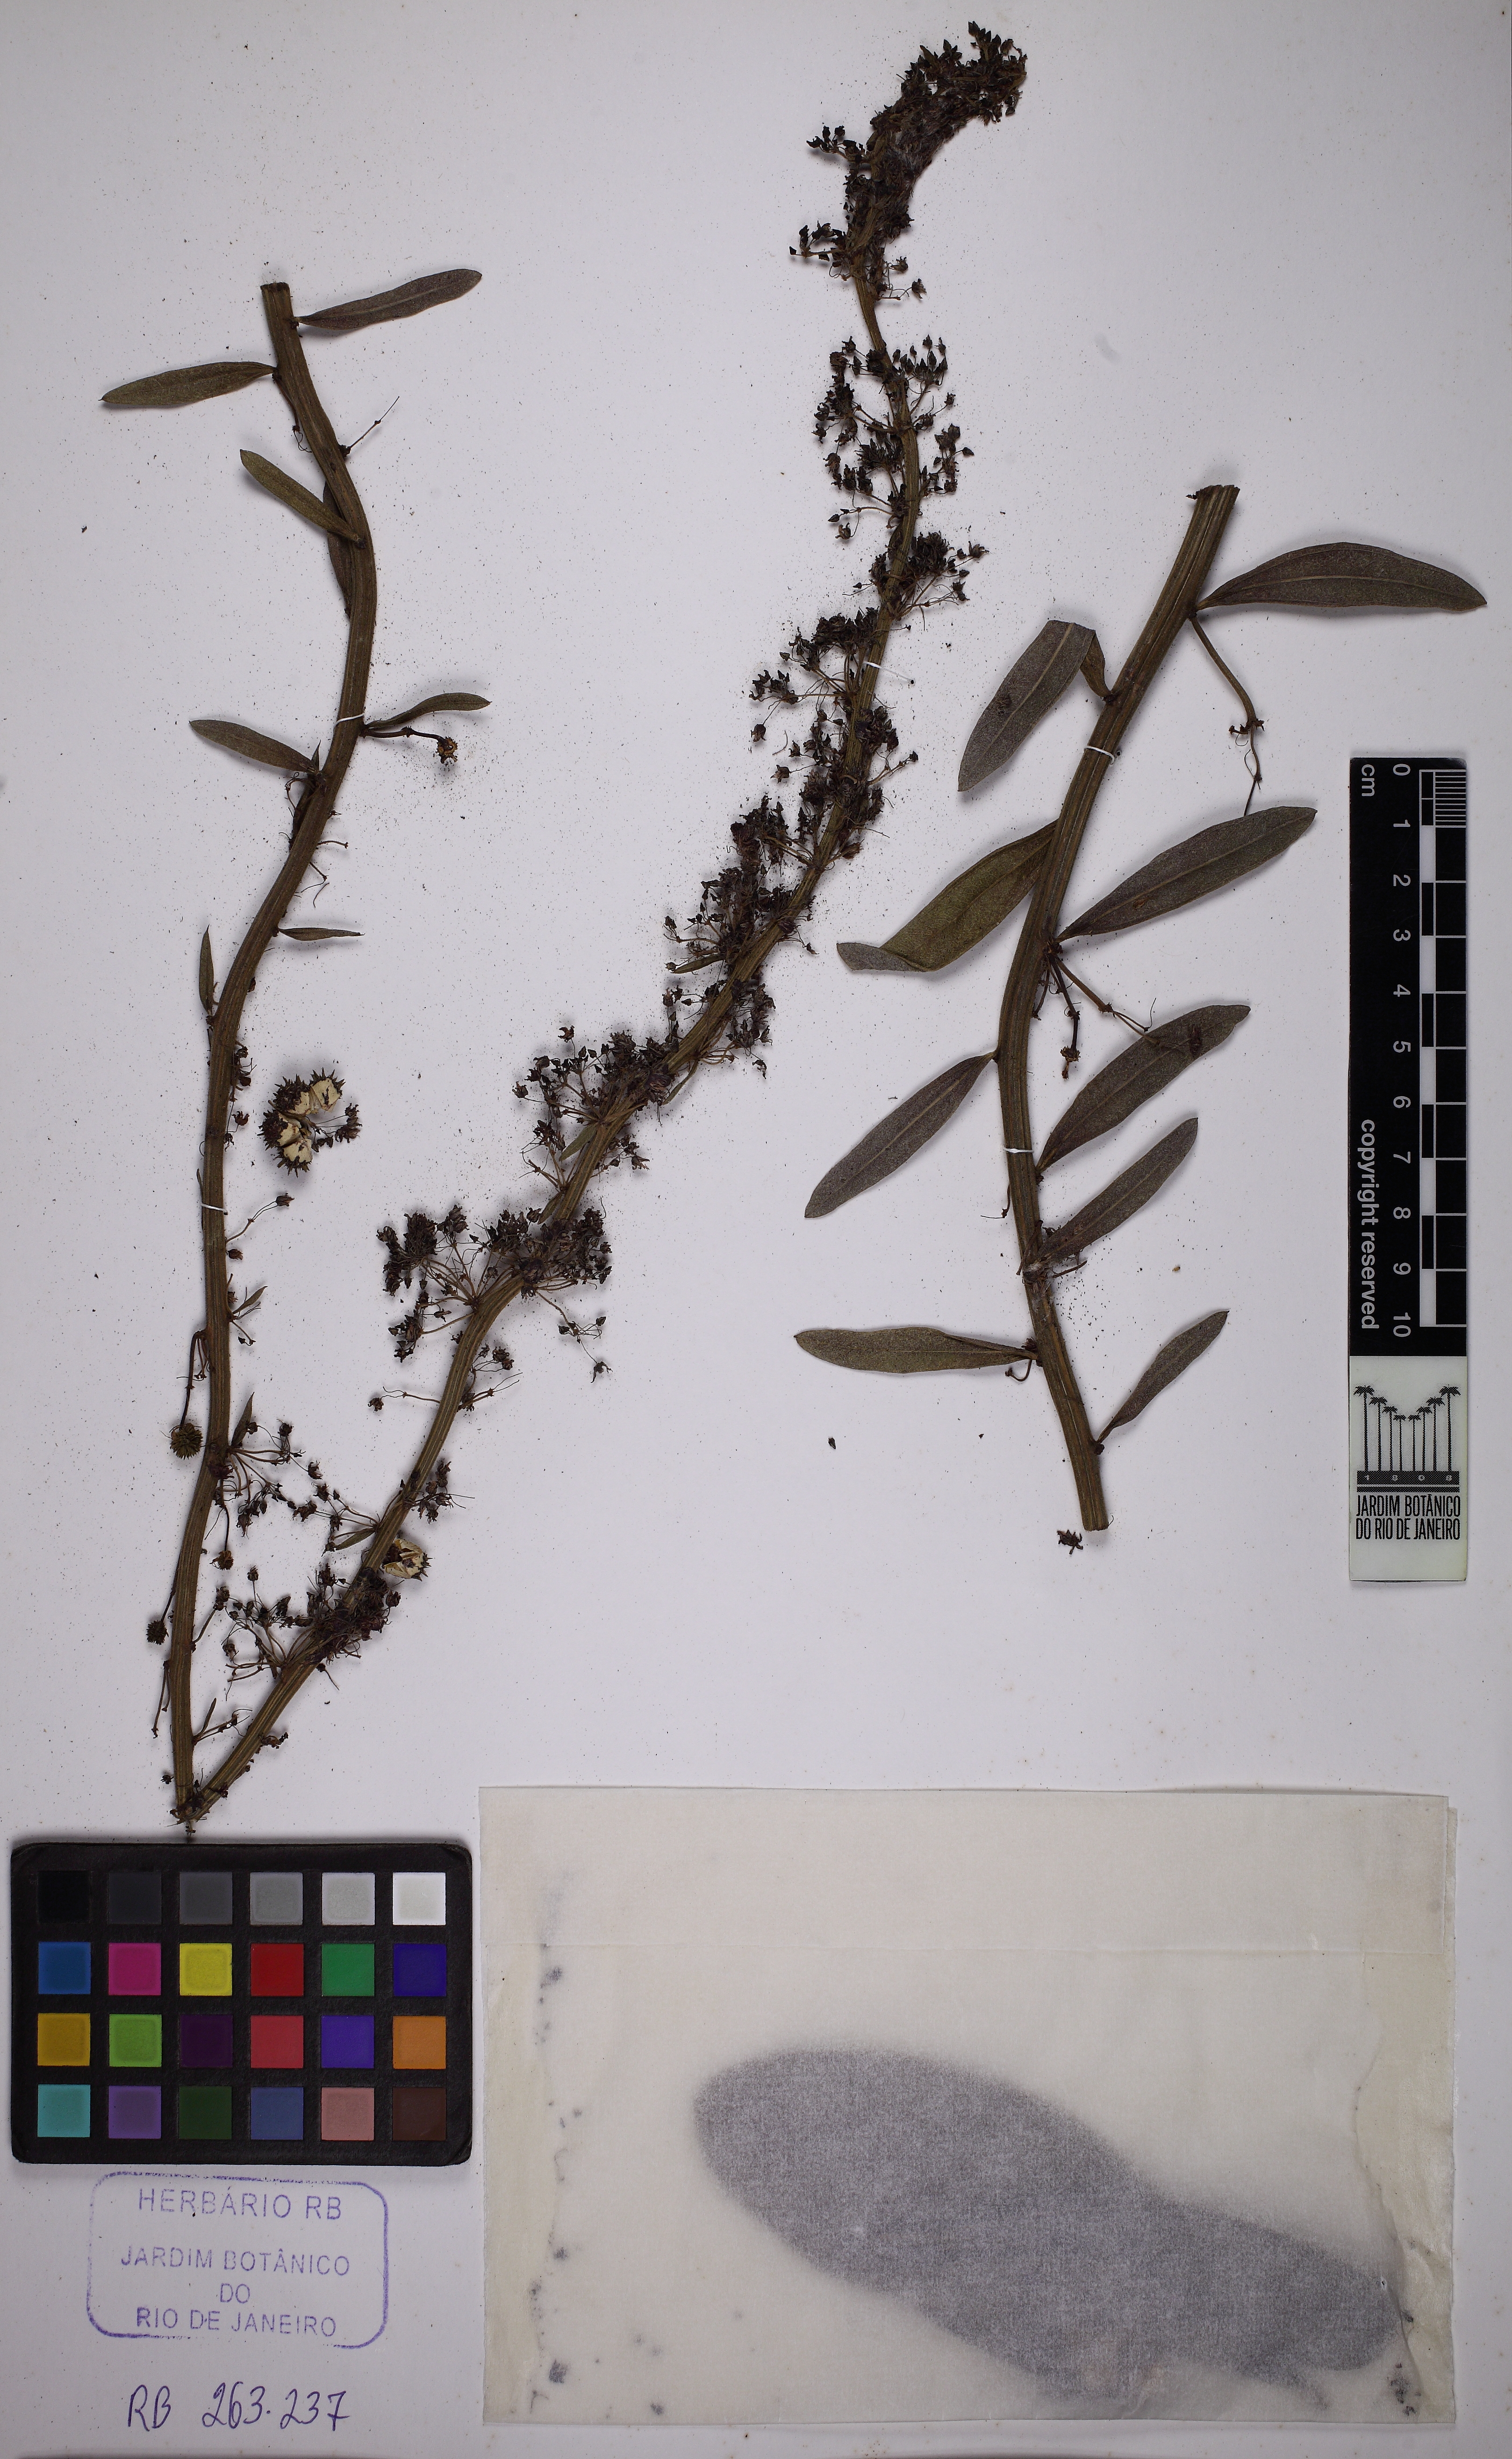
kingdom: Plantae
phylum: Tracheophyta
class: Magnoliopsida
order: Malvales
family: Malvaceae
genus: Byttneria
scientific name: Byttneria
